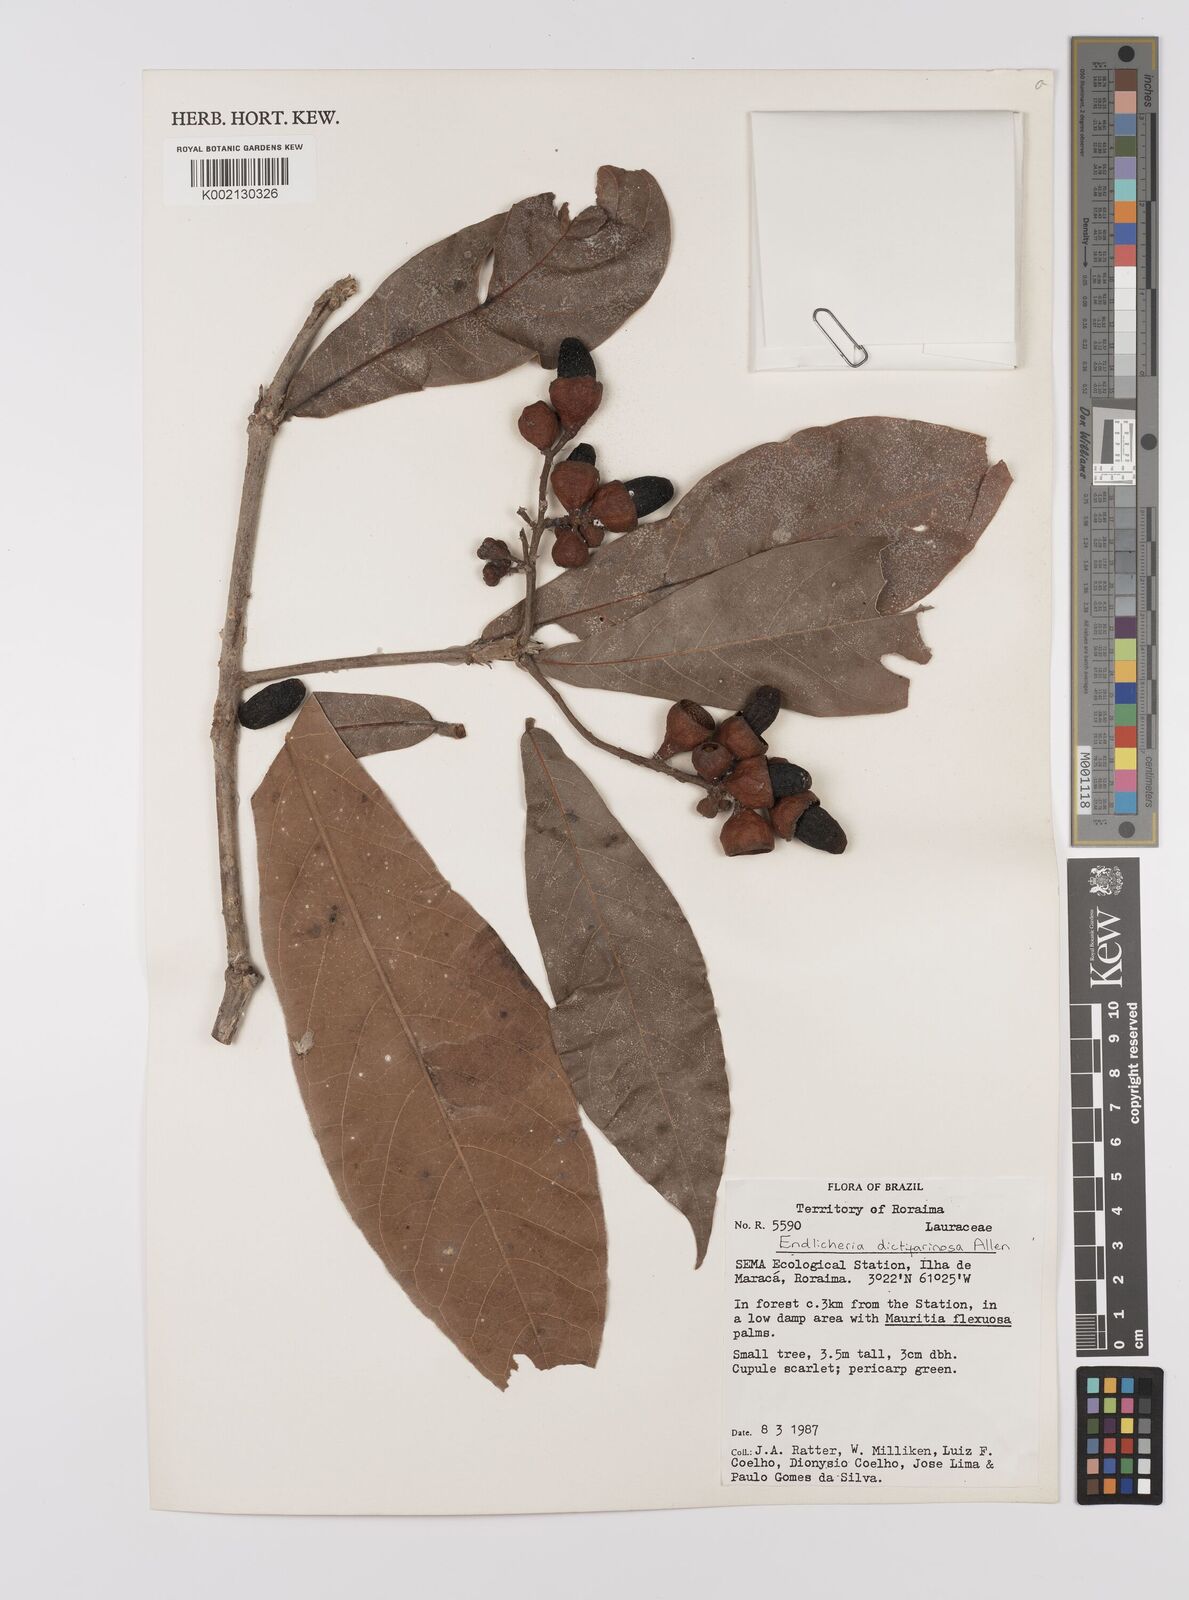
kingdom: Plantae
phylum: Tracheophyta
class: Magnoliopsida
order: Laurales
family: Lauraceae
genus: Endlicheria
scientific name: Endlicheria dictifarinosa
